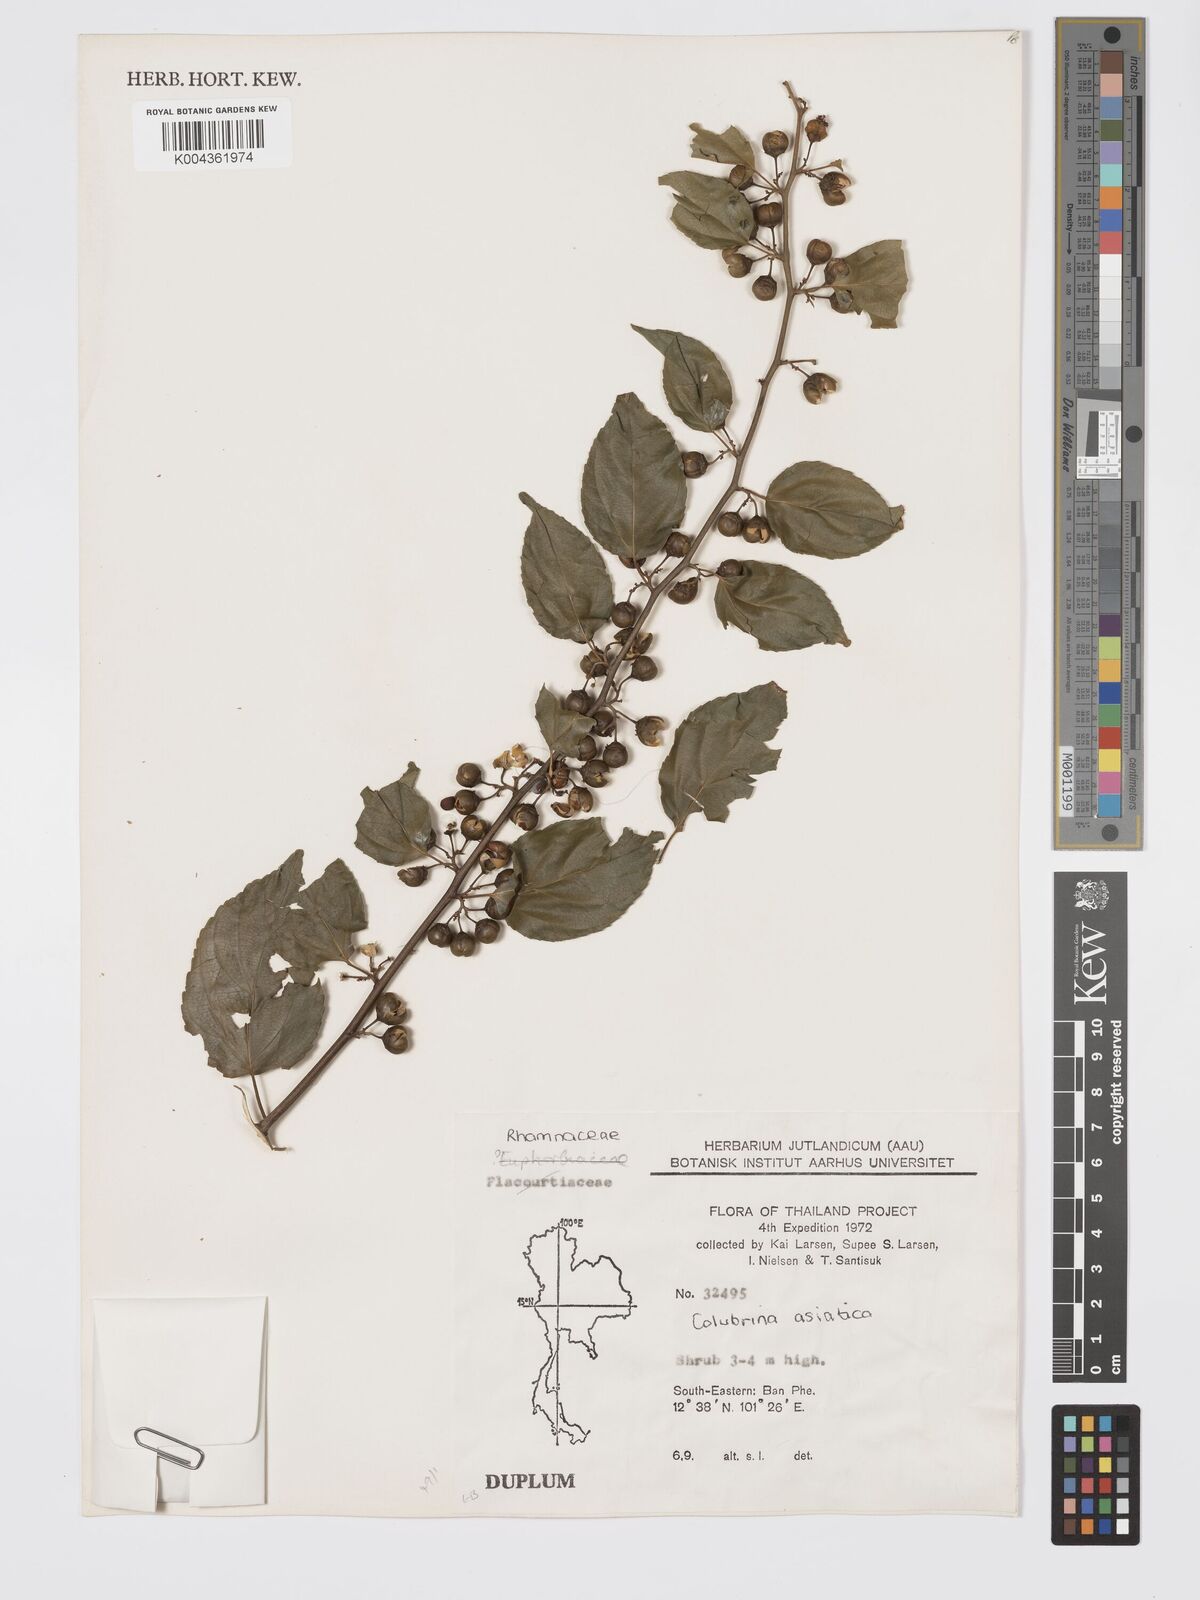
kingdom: Plantae
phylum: Tracheophyta
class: Magnoliopsida
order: Rosales
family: Rhamnaceae
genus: Colubrina
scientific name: Colubrina asiatica
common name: Asian nakedwood
